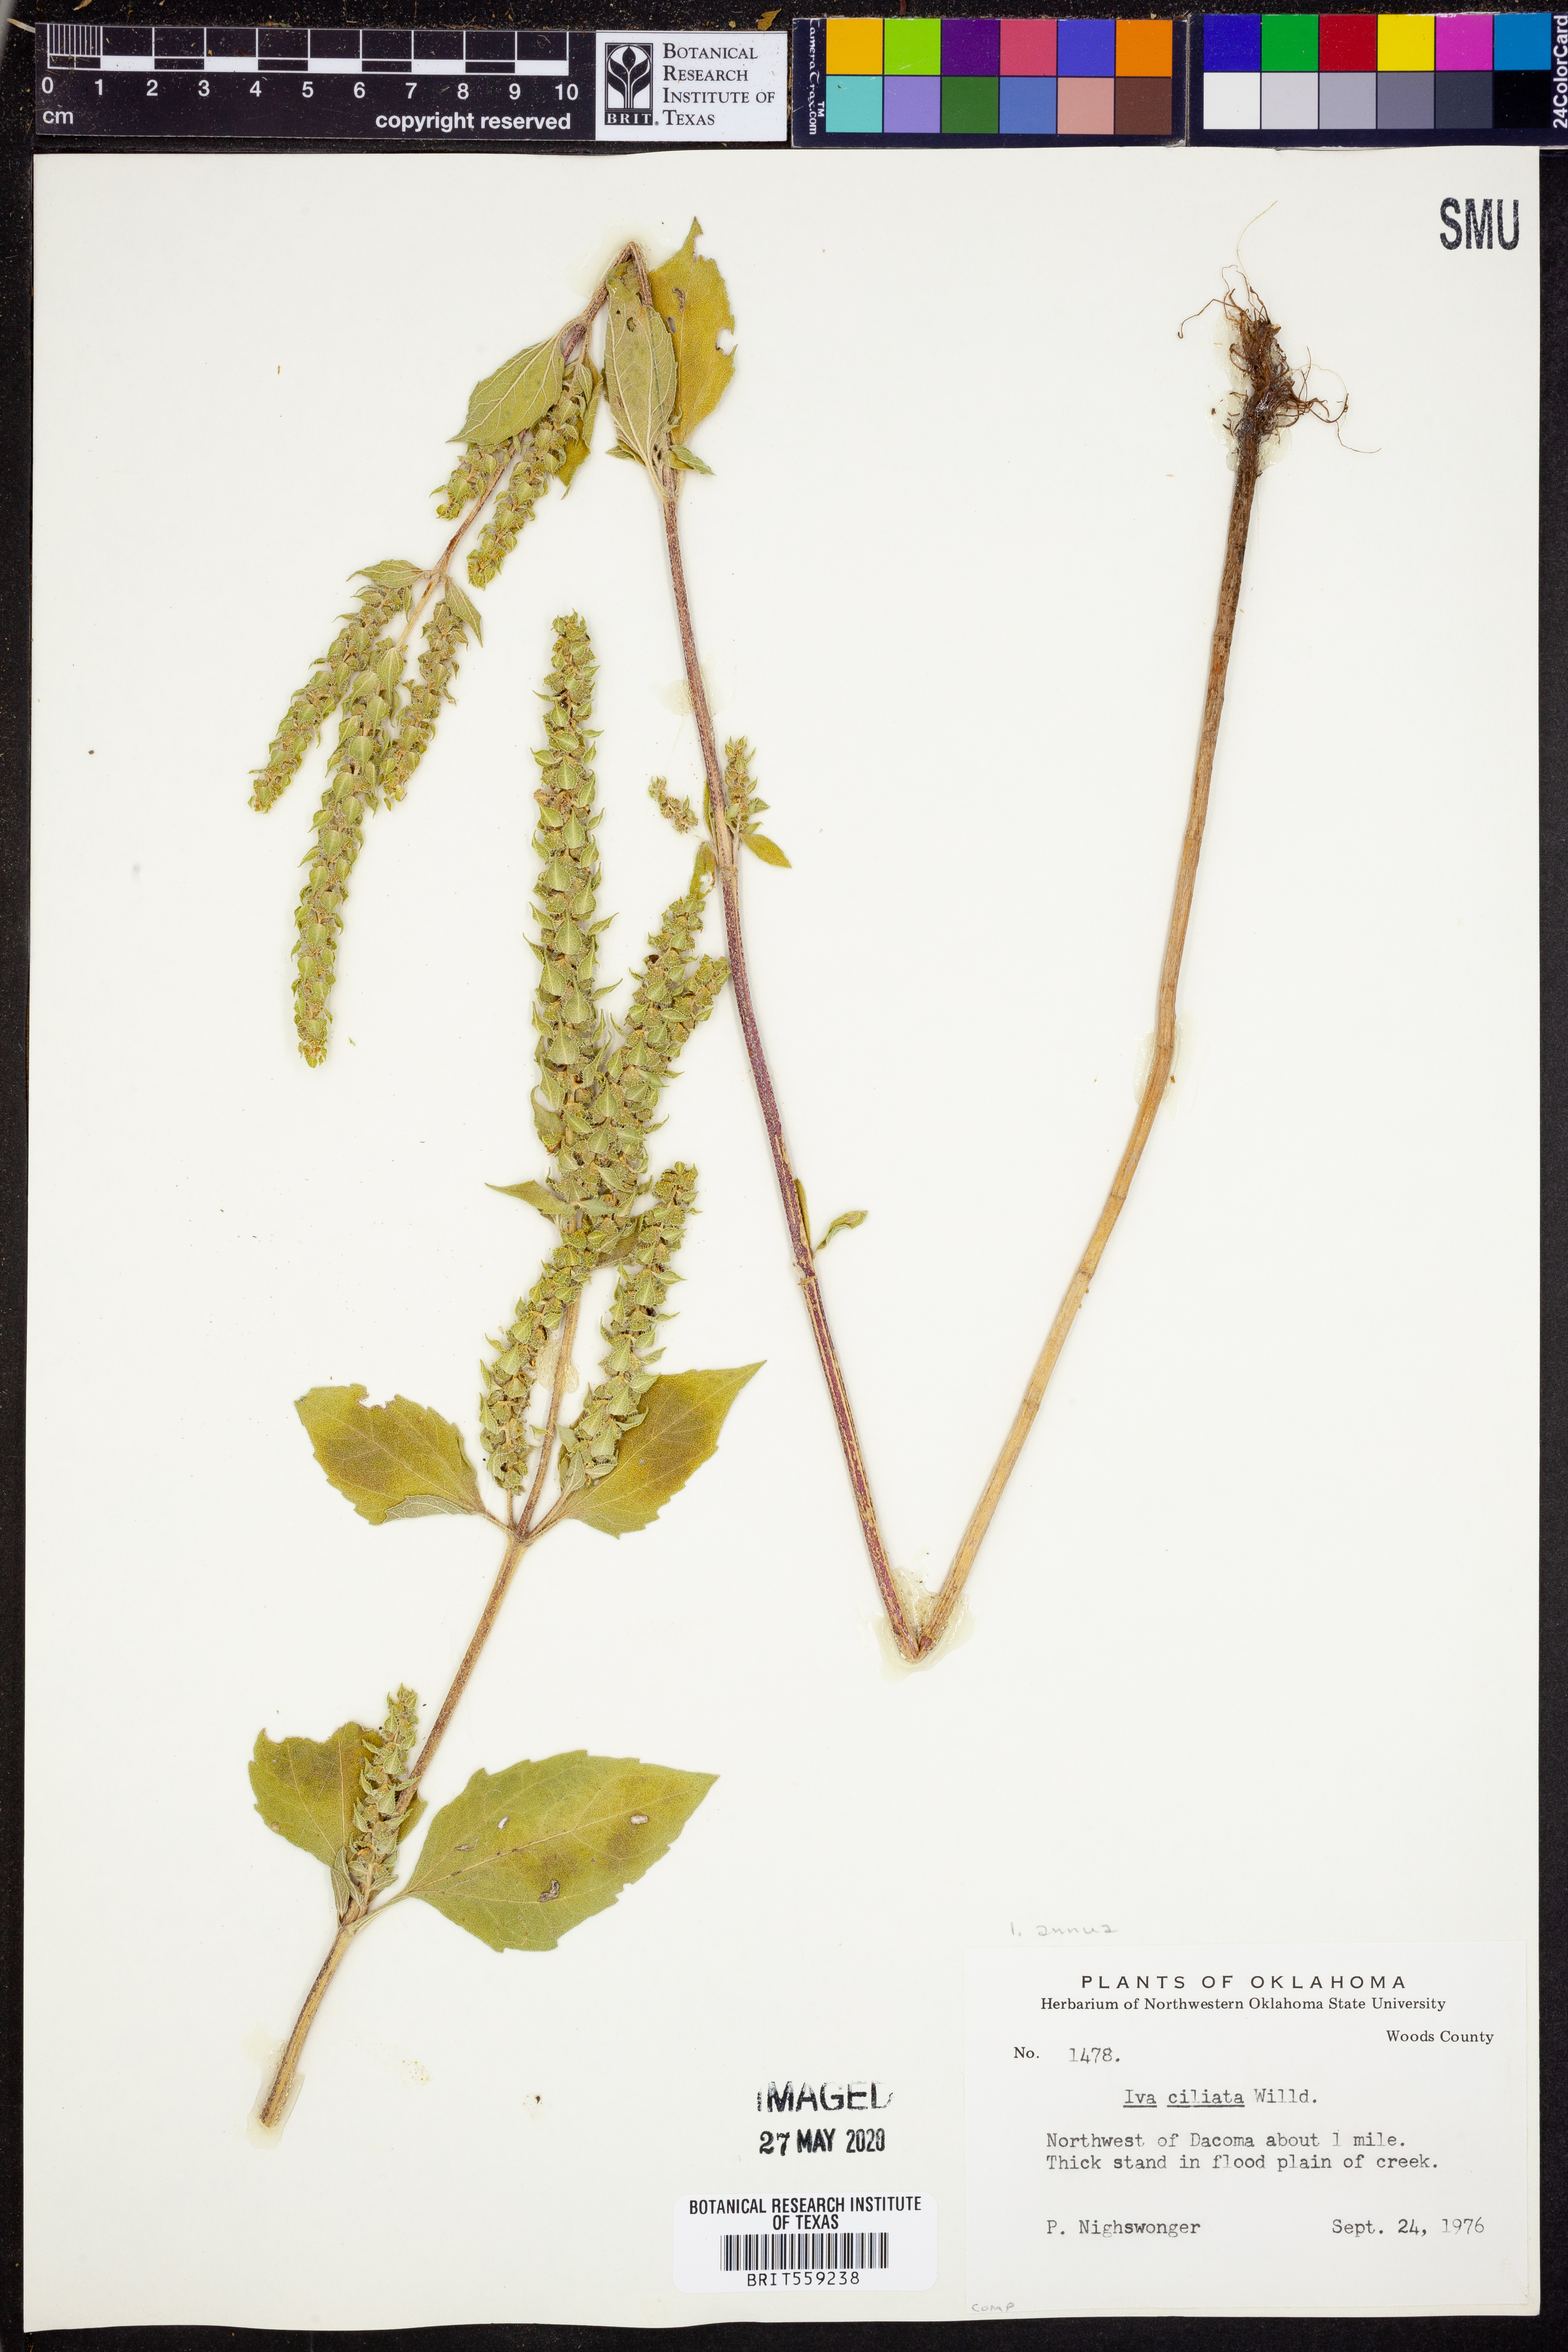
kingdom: Plantae
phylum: Tracheophyta
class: Magnoliopsida
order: Asterales
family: Asteraceae
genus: Iva
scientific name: Iva annua
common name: Marsh-elder
